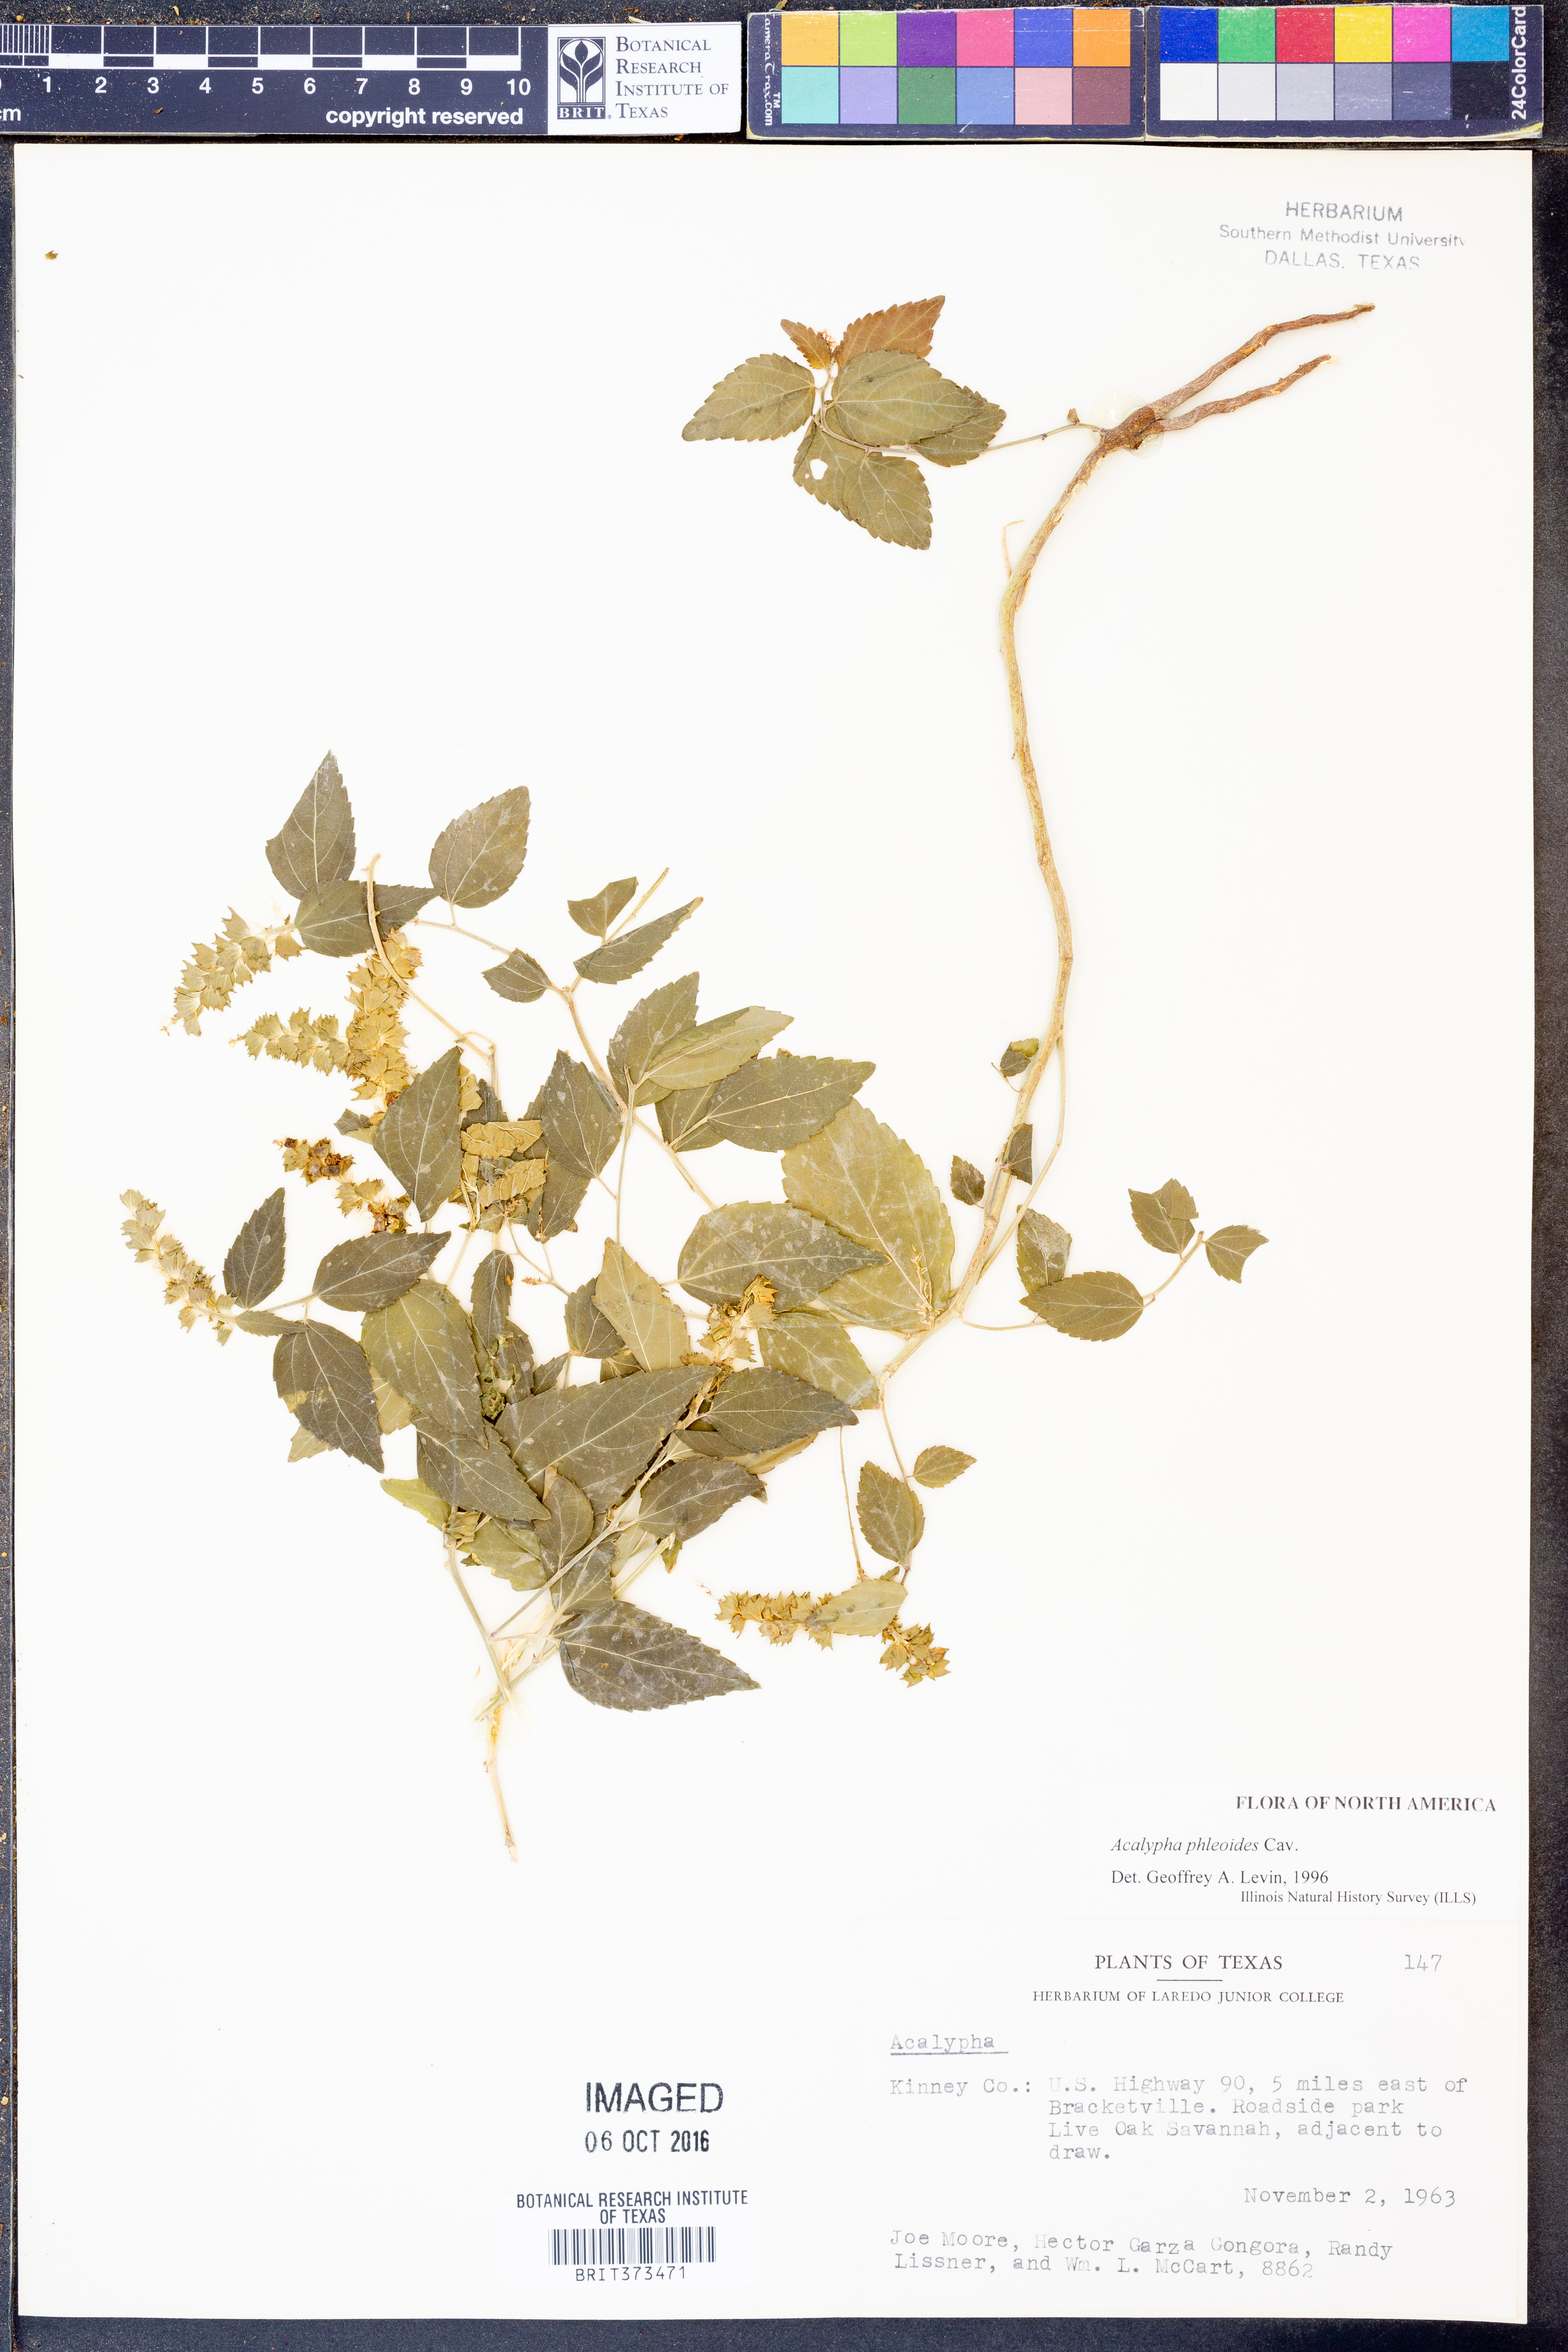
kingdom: Plantae
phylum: Tracheophyta
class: Magnoliopsida
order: Malpighiales
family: Euphorbiaceae
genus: Acalypha
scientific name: Acalypha phleoides
